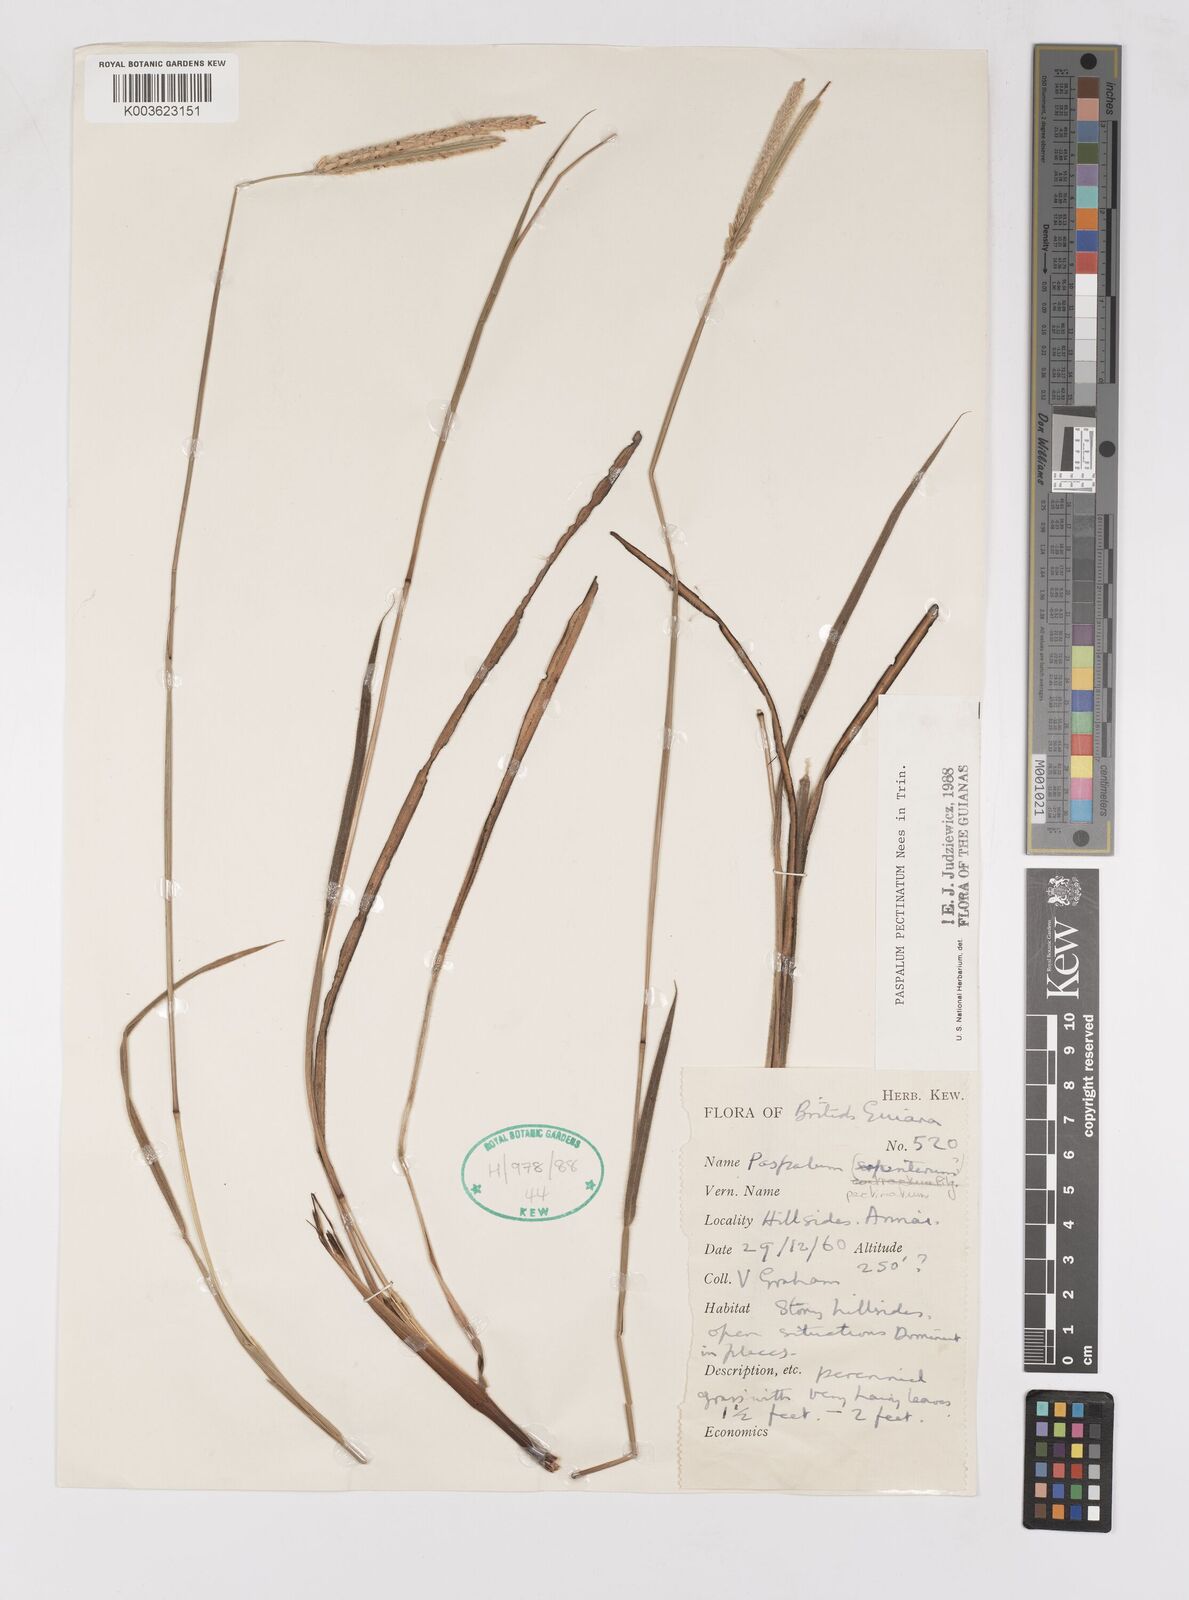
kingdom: Plantae
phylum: Tracheophyta
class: Liliopsida
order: Poales
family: Poaceae
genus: Paspalum
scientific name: Paspalum pectinatum
